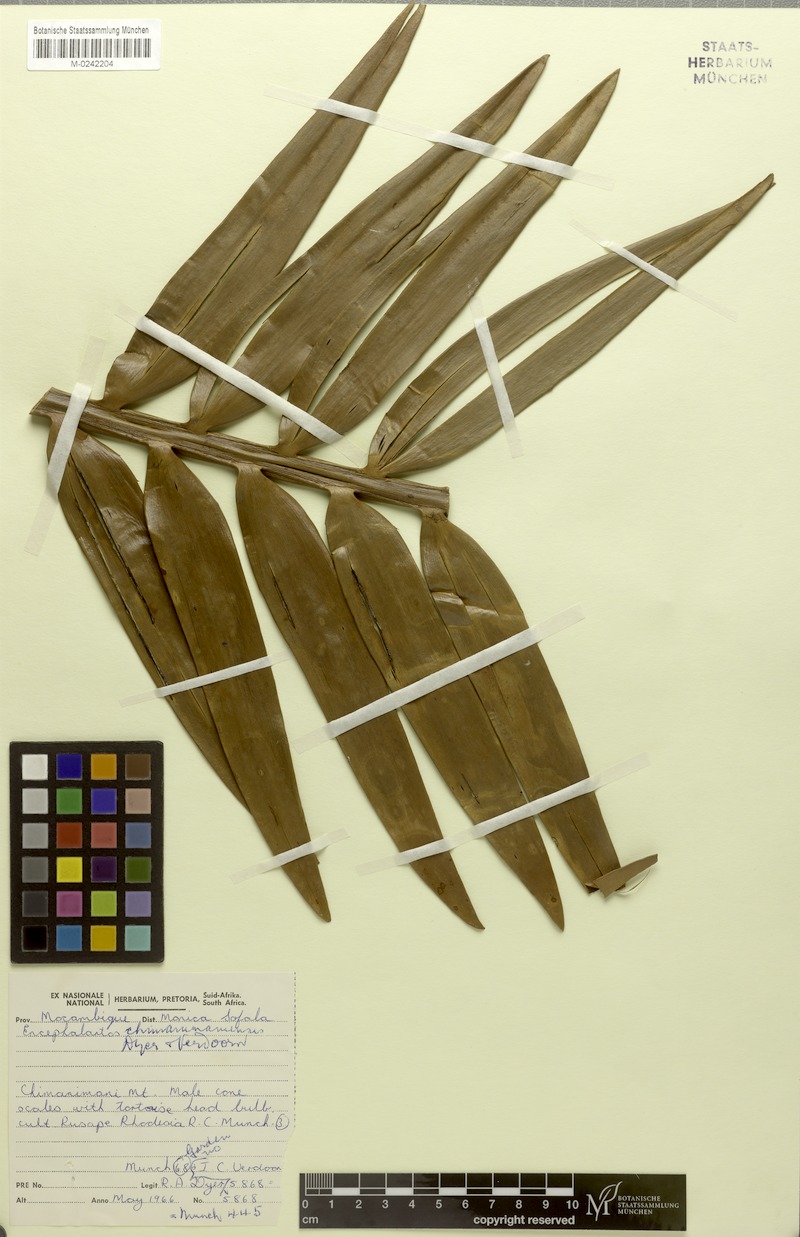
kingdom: Plantae
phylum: Tracheophyta
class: Cycadopsida
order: Cycadales
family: Zamiaceae
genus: Encephalartos
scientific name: Encephalartos chimanimaniensis
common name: Chimanimani cycad
